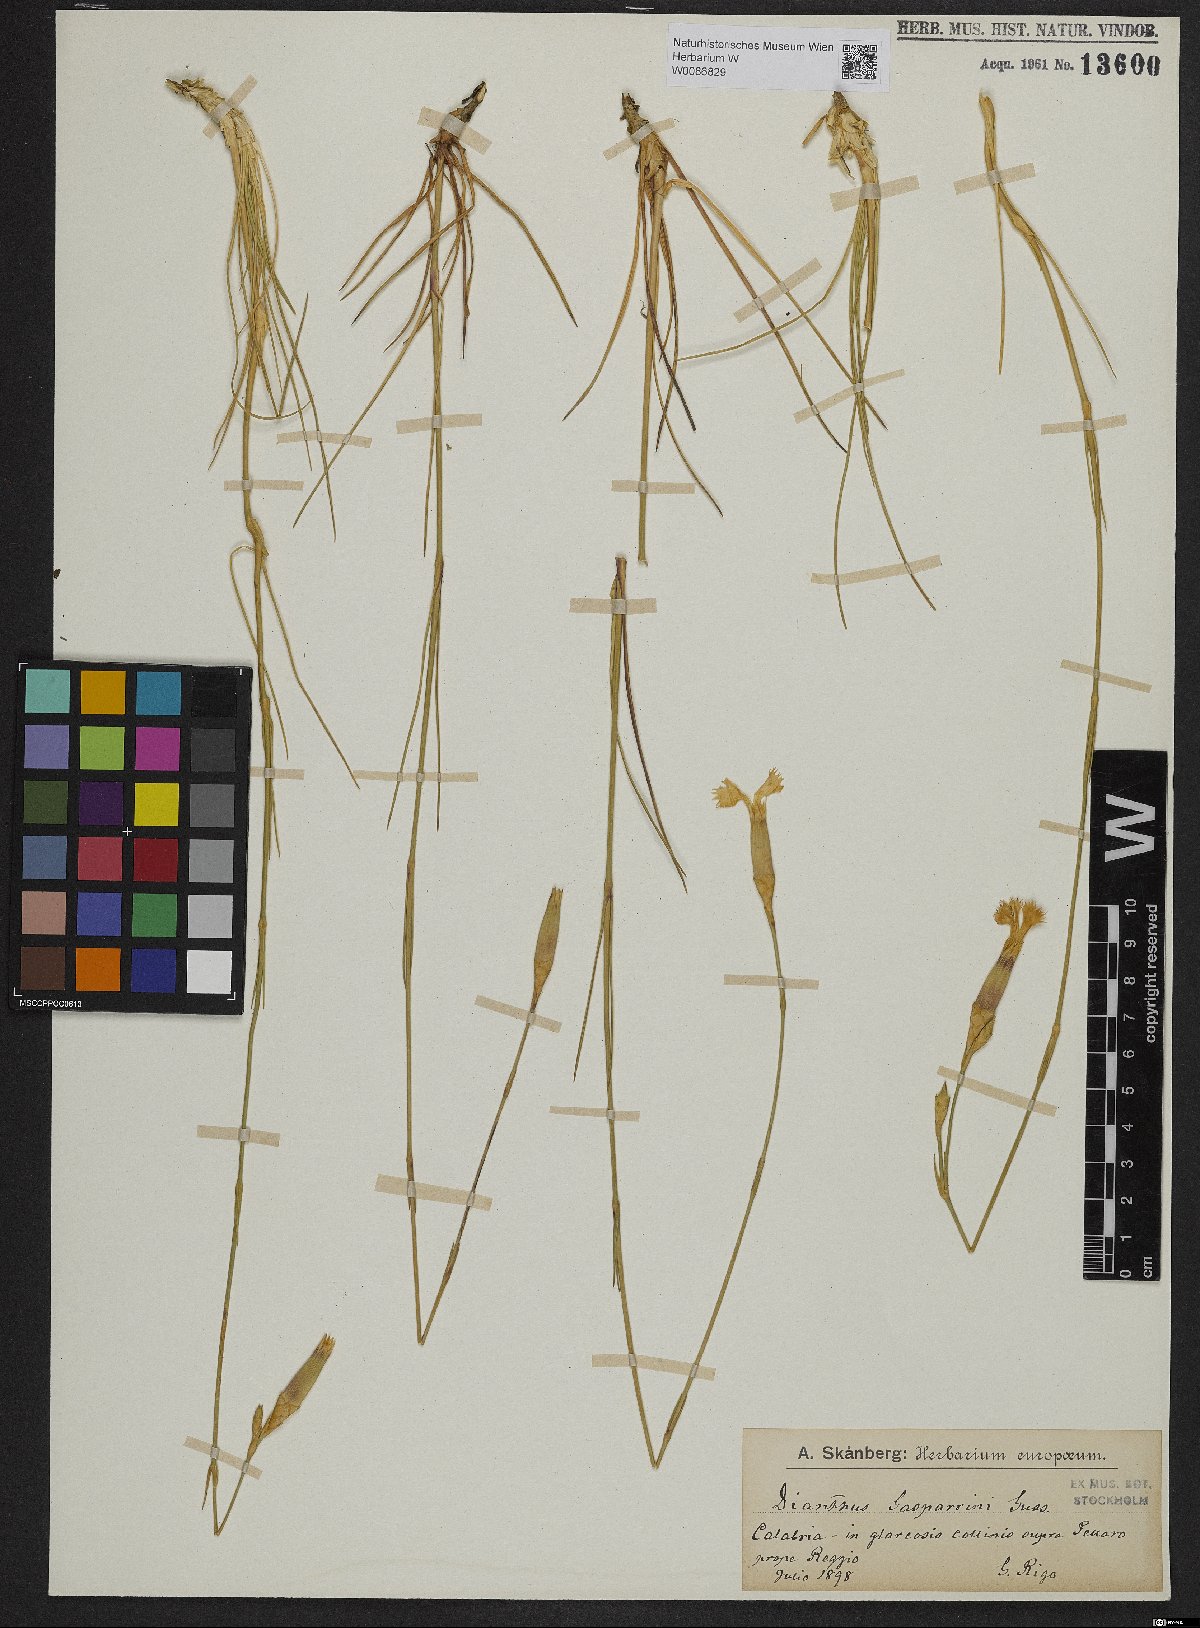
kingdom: Plantae
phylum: Tracheophyta
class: Magnoliopsida
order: Caryophyllales
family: Caryophyllaceae
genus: Dianthus
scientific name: Dianthus siculus
